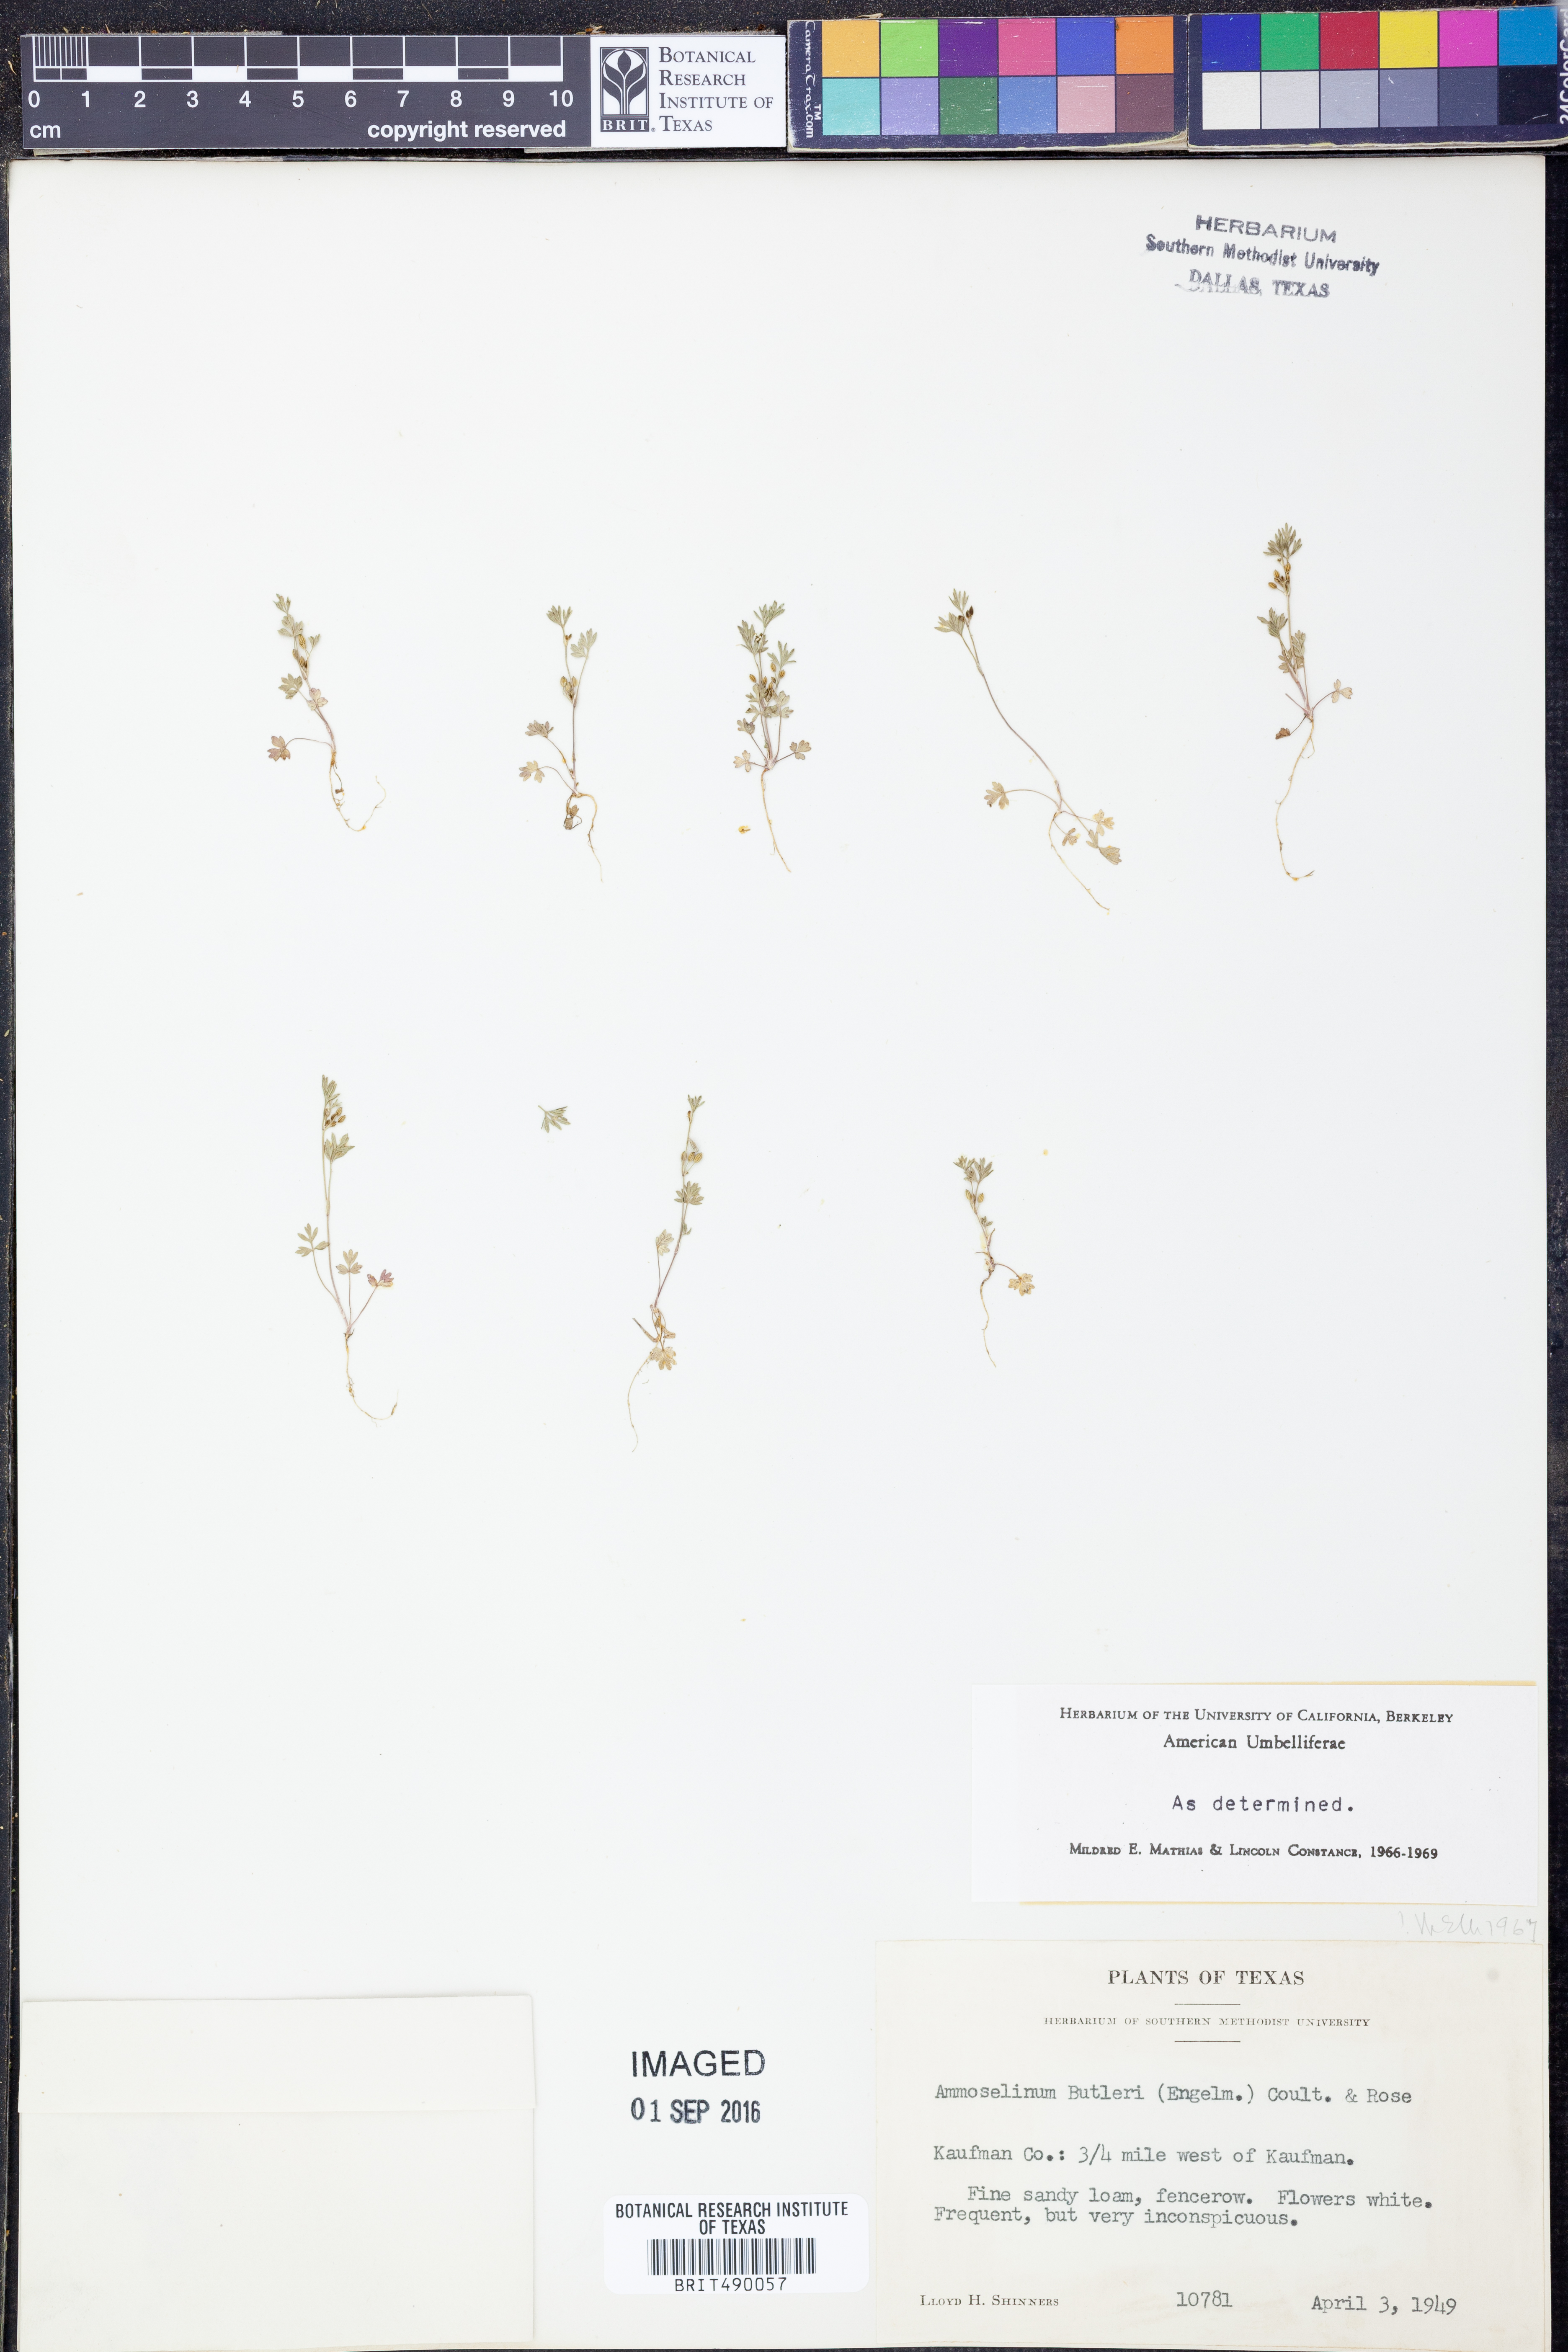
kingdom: Plantae
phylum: Tracheophyta
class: Magnoliopsida
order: Apiales
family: Apiaceae
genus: Ammoselinum
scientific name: Ammoselinum butleri
